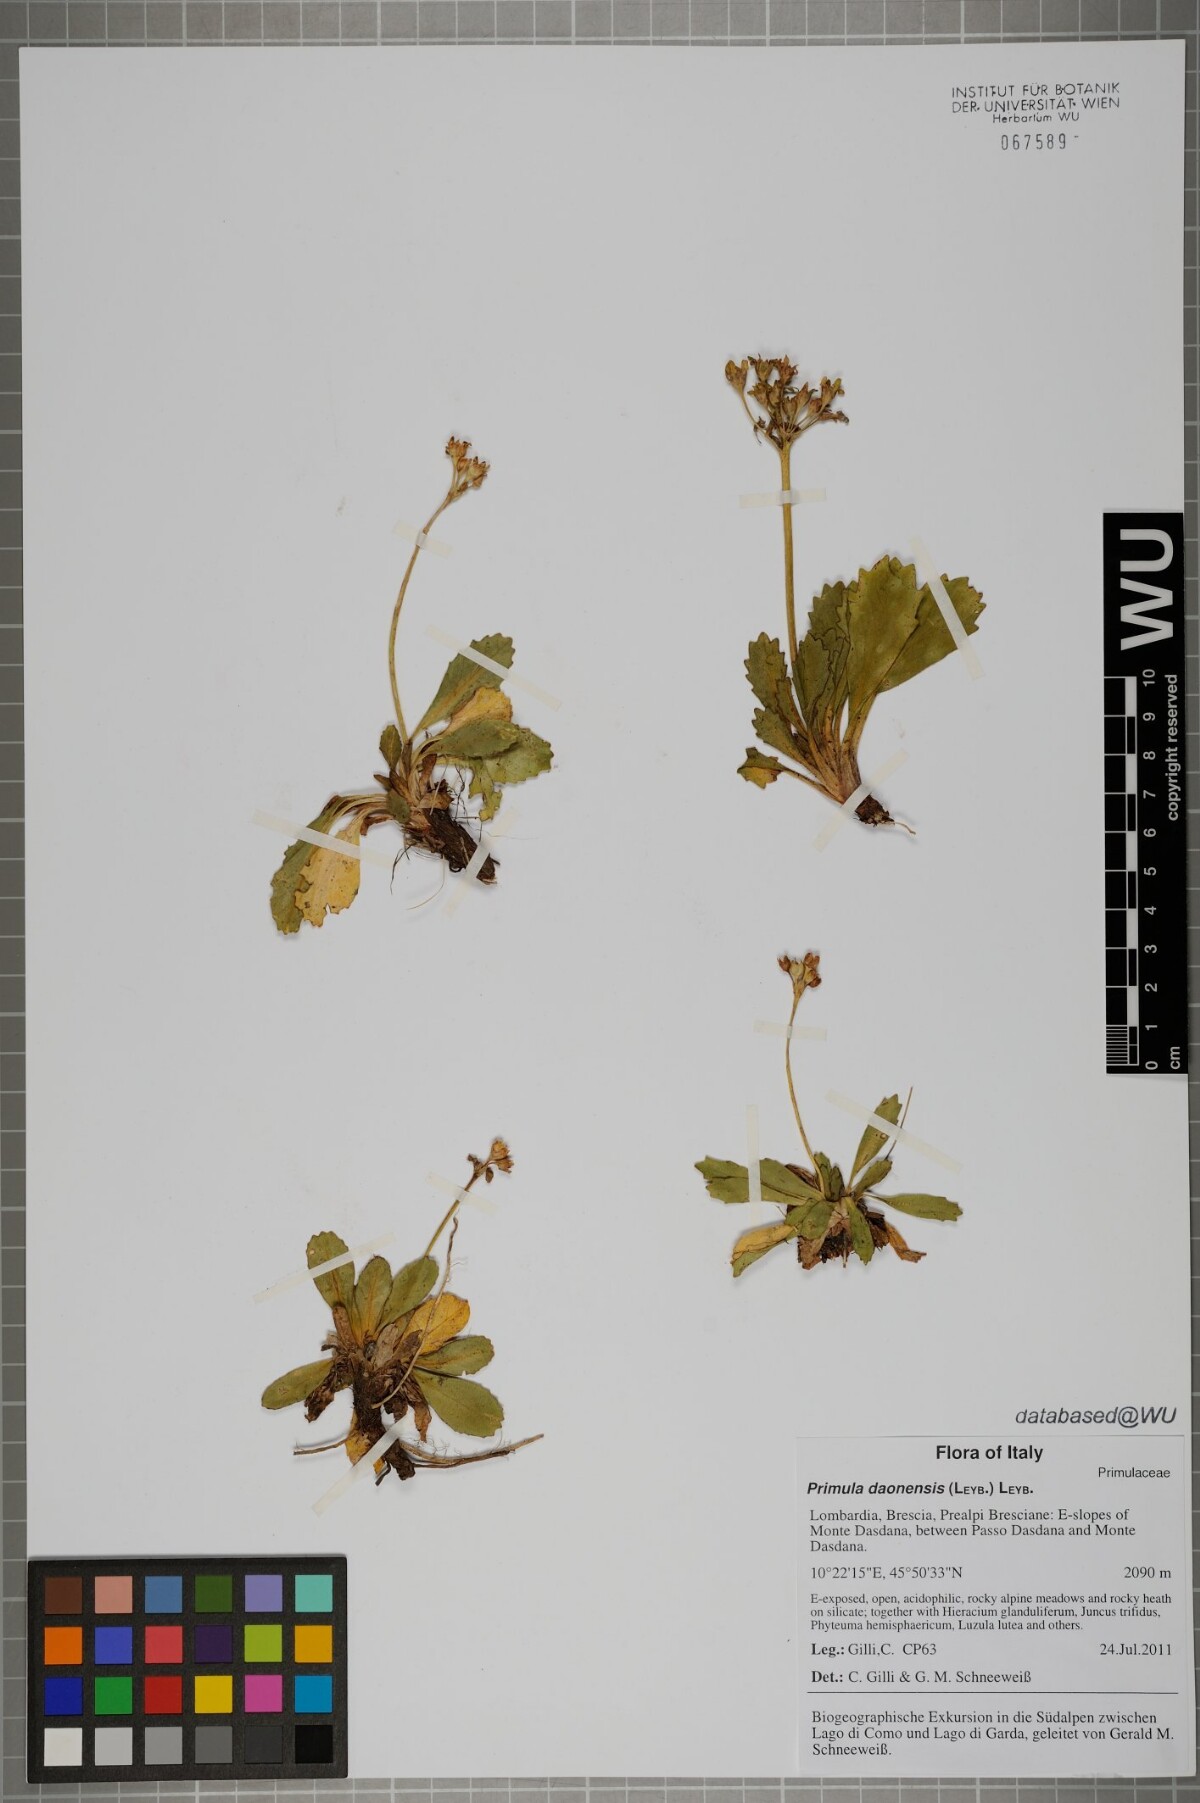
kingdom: Plantae
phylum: Tracheophyta
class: Magnoliopsida
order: Ericales
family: Primulaceae
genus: Primula
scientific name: Primula daonensis
